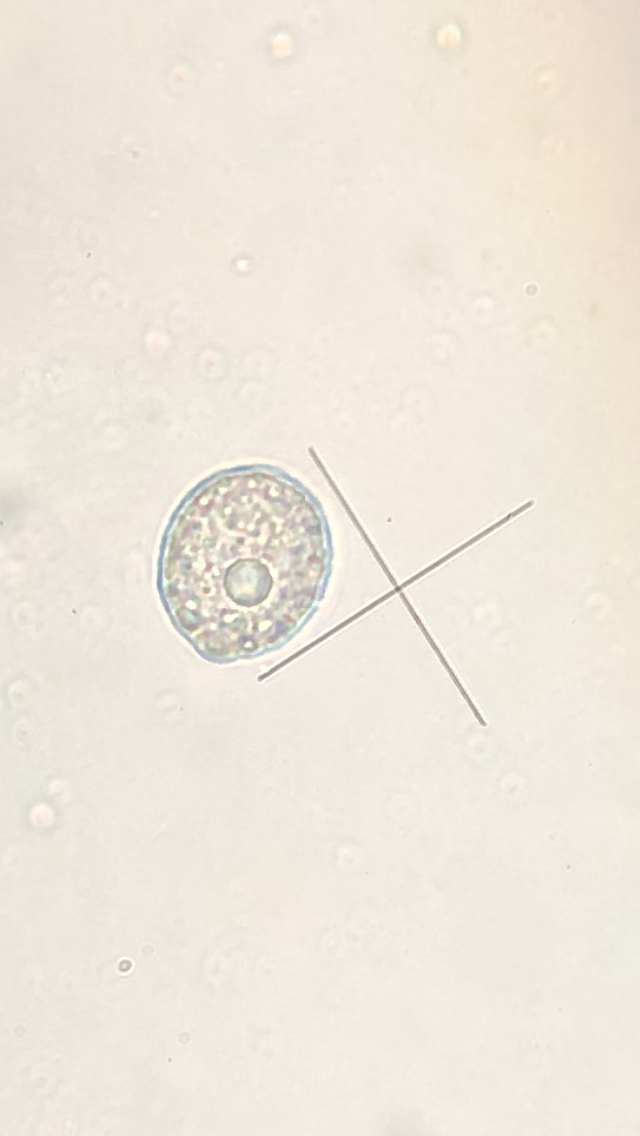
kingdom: Chromista
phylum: Oomycota
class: Peronosporea
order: Peronosporales
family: Peronosporaceae
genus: Plasmoverna
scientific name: Plasmoverna pygmaea
